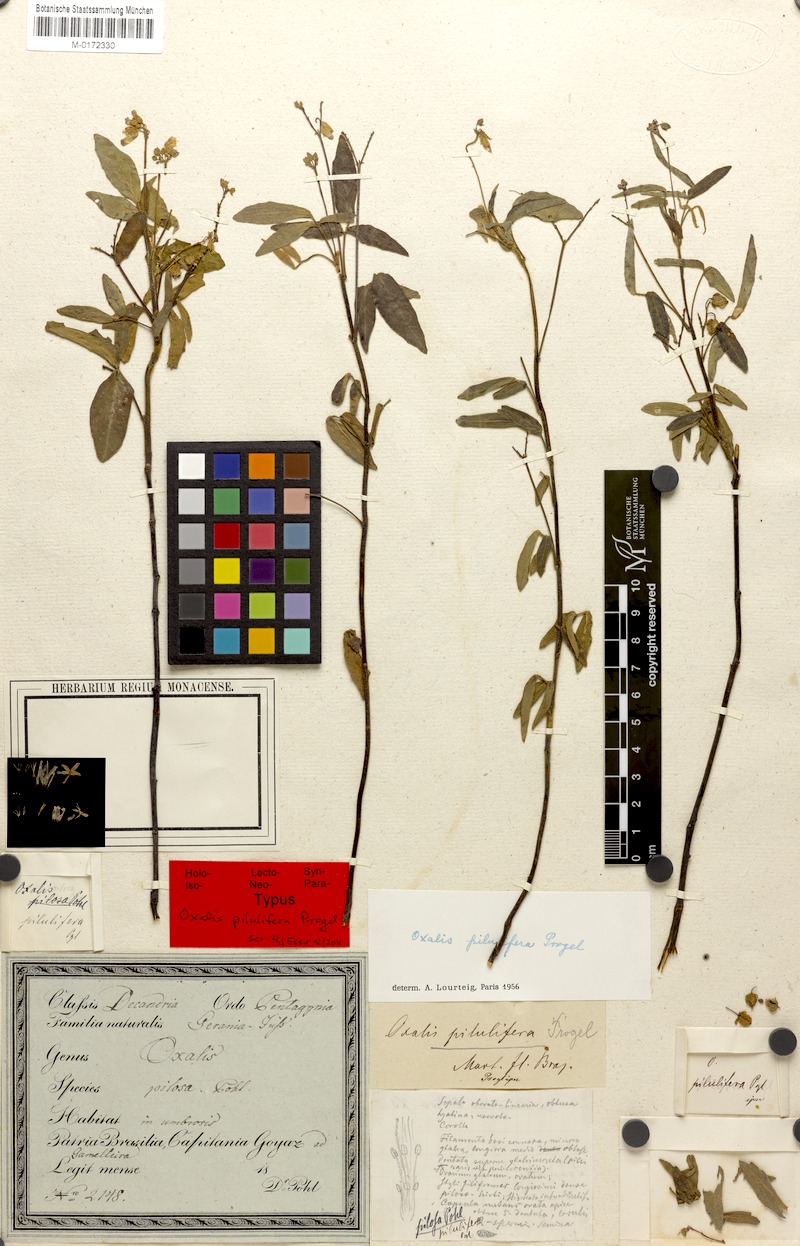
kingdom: Plantae
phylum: Tracheophyta
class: Magnoliopsida
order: Oxalidales
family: Oxalidaceae
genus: Oxalis
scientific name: Oxalis pilulifera
